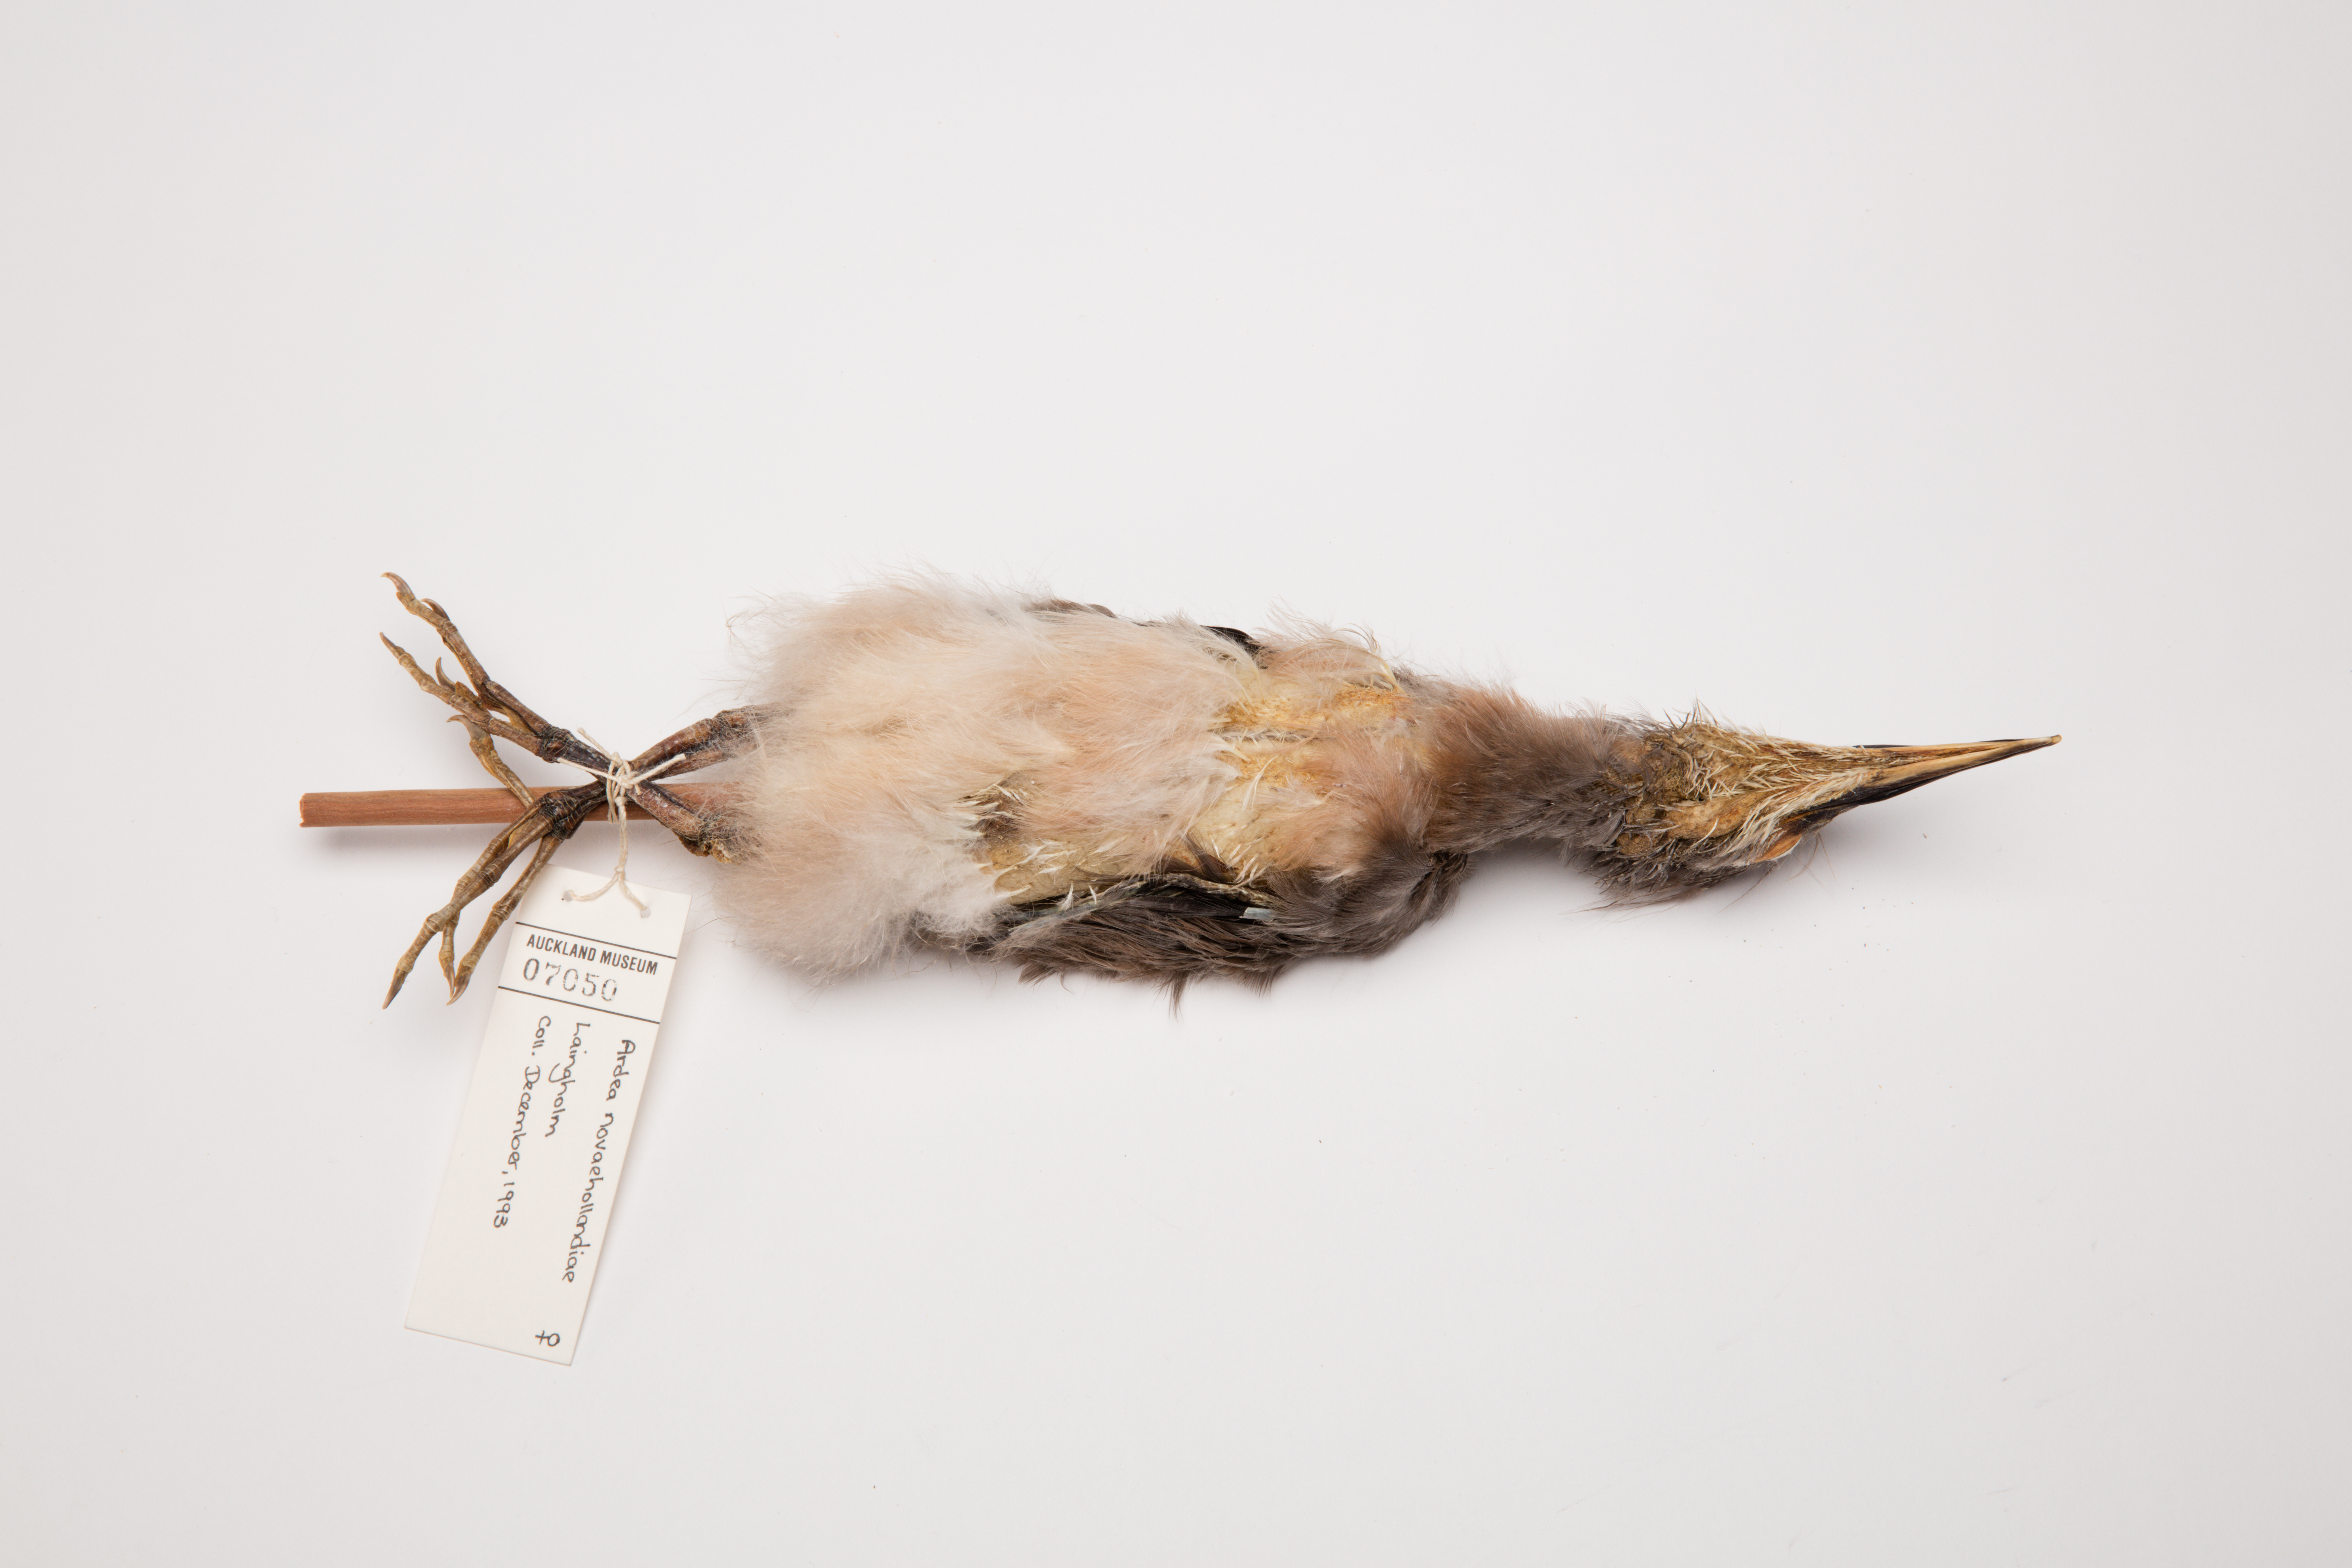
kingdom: Animalia
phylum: Chordata
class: Aves
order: Pelecaniformes
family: Ardeidae
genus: Egretta
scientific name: Egretta novaehollandiae
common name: White-faced heron
